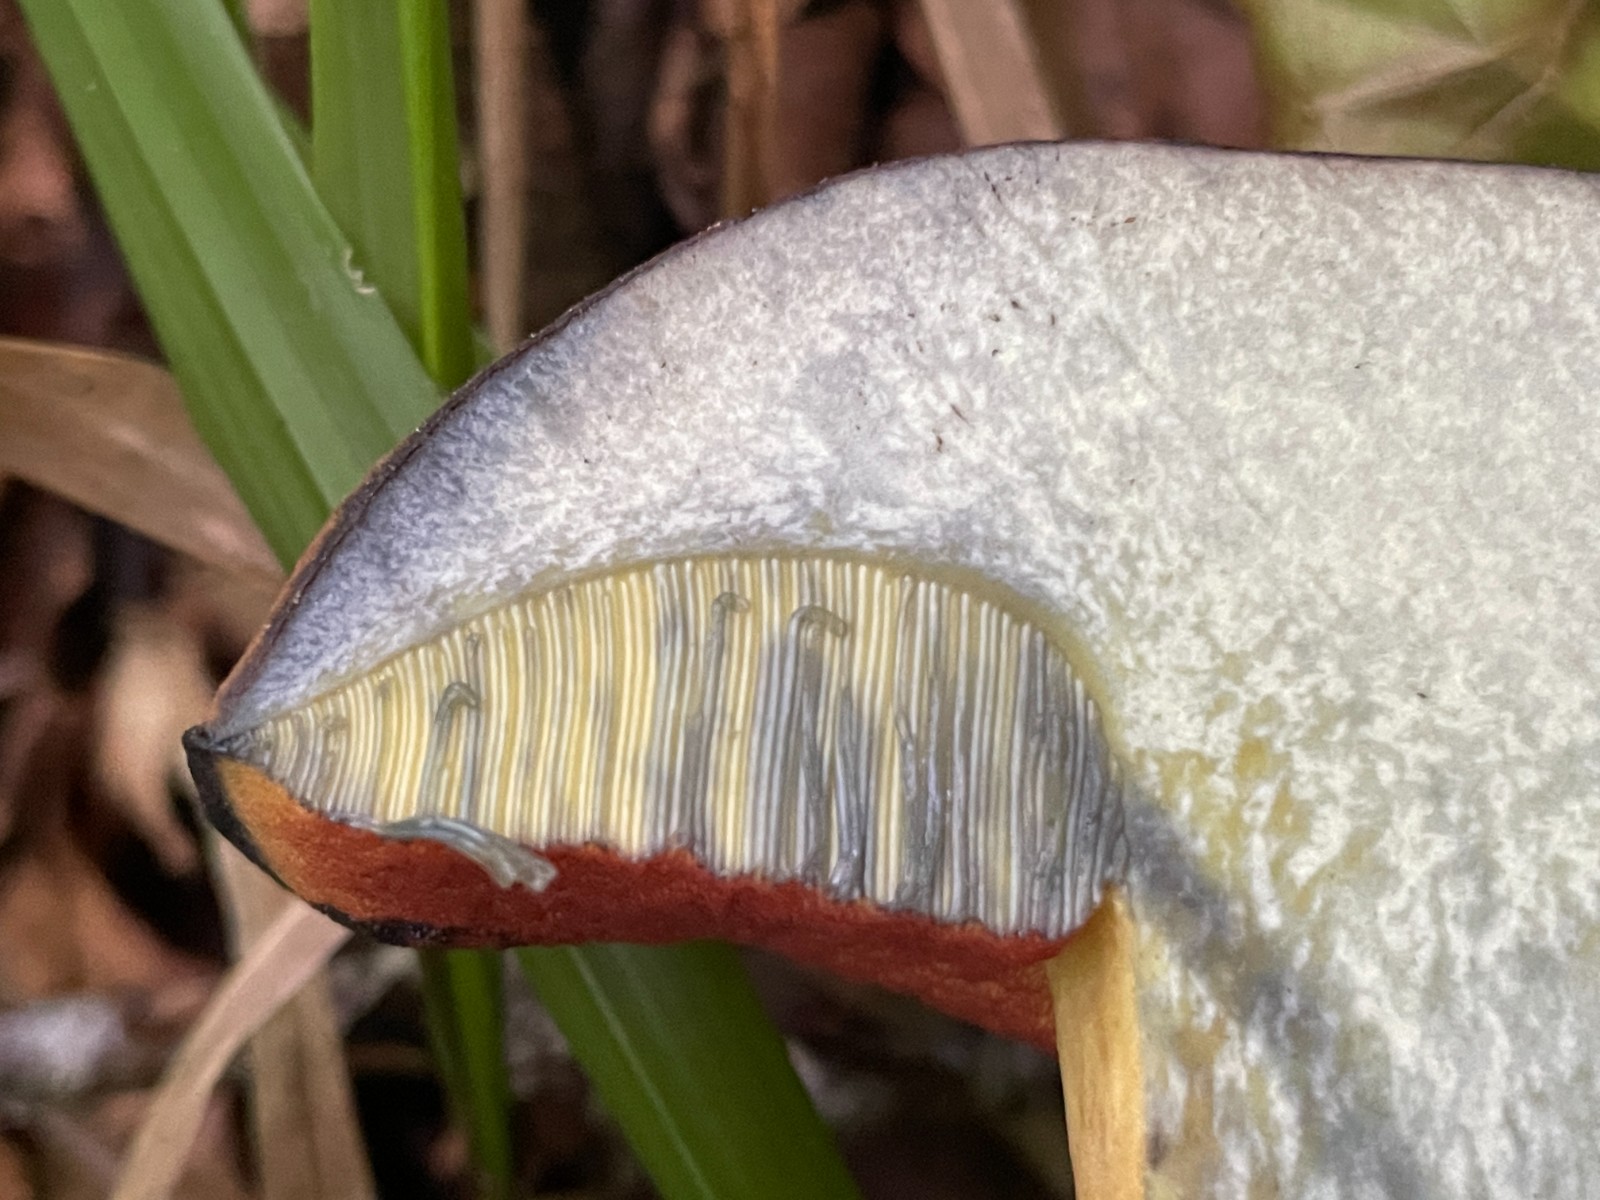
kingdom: Fungi
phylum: Basidiomycota
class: Agaricomycetes
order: Boletales
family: Boletaceae
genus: Neoboletus
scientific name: Neoboletus xanthopus
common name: finprikket indigorørhat
